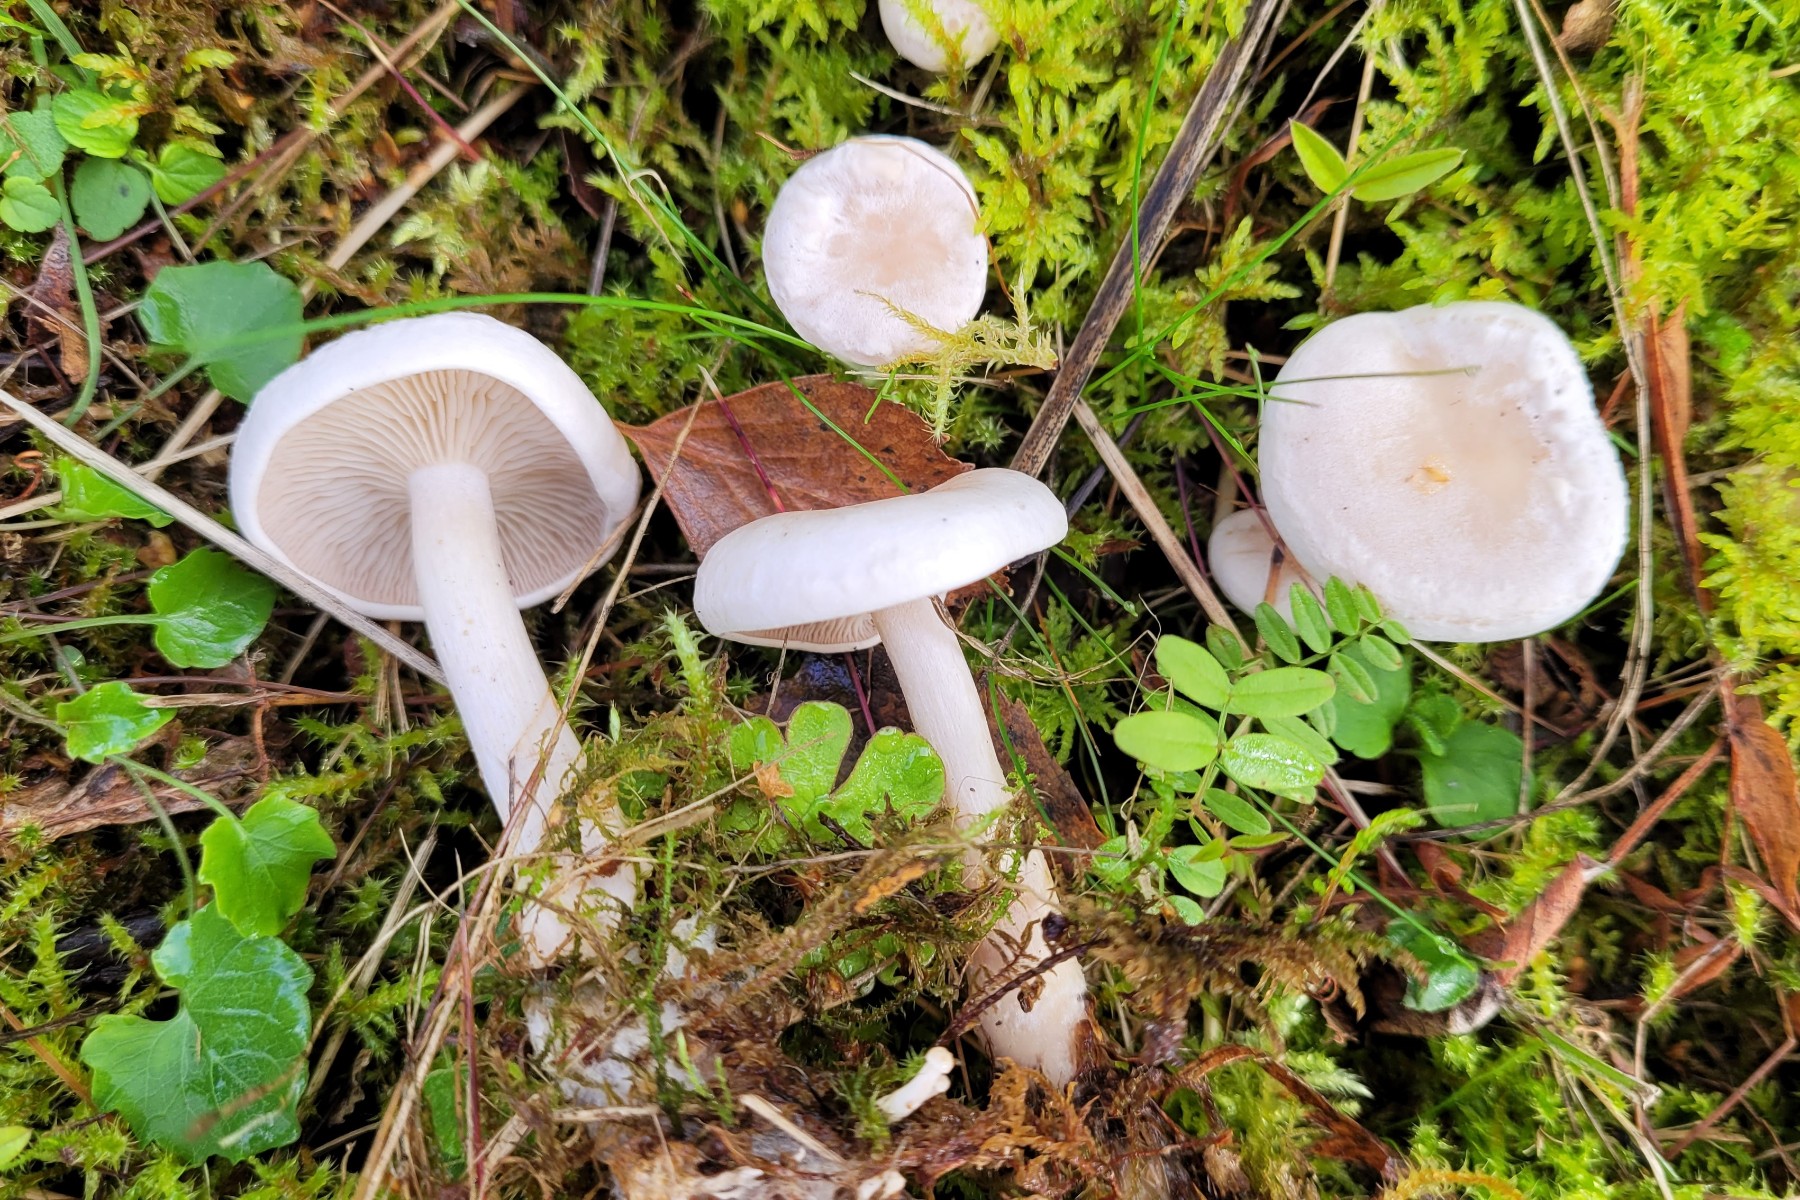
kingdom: Fungi
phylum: Basidiomycota
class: Agaricomycetes
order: Agaricales
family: Tricholomataceae
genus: Clitocybe
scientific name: Clitocybe rivulosa
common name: eng-tragthat
